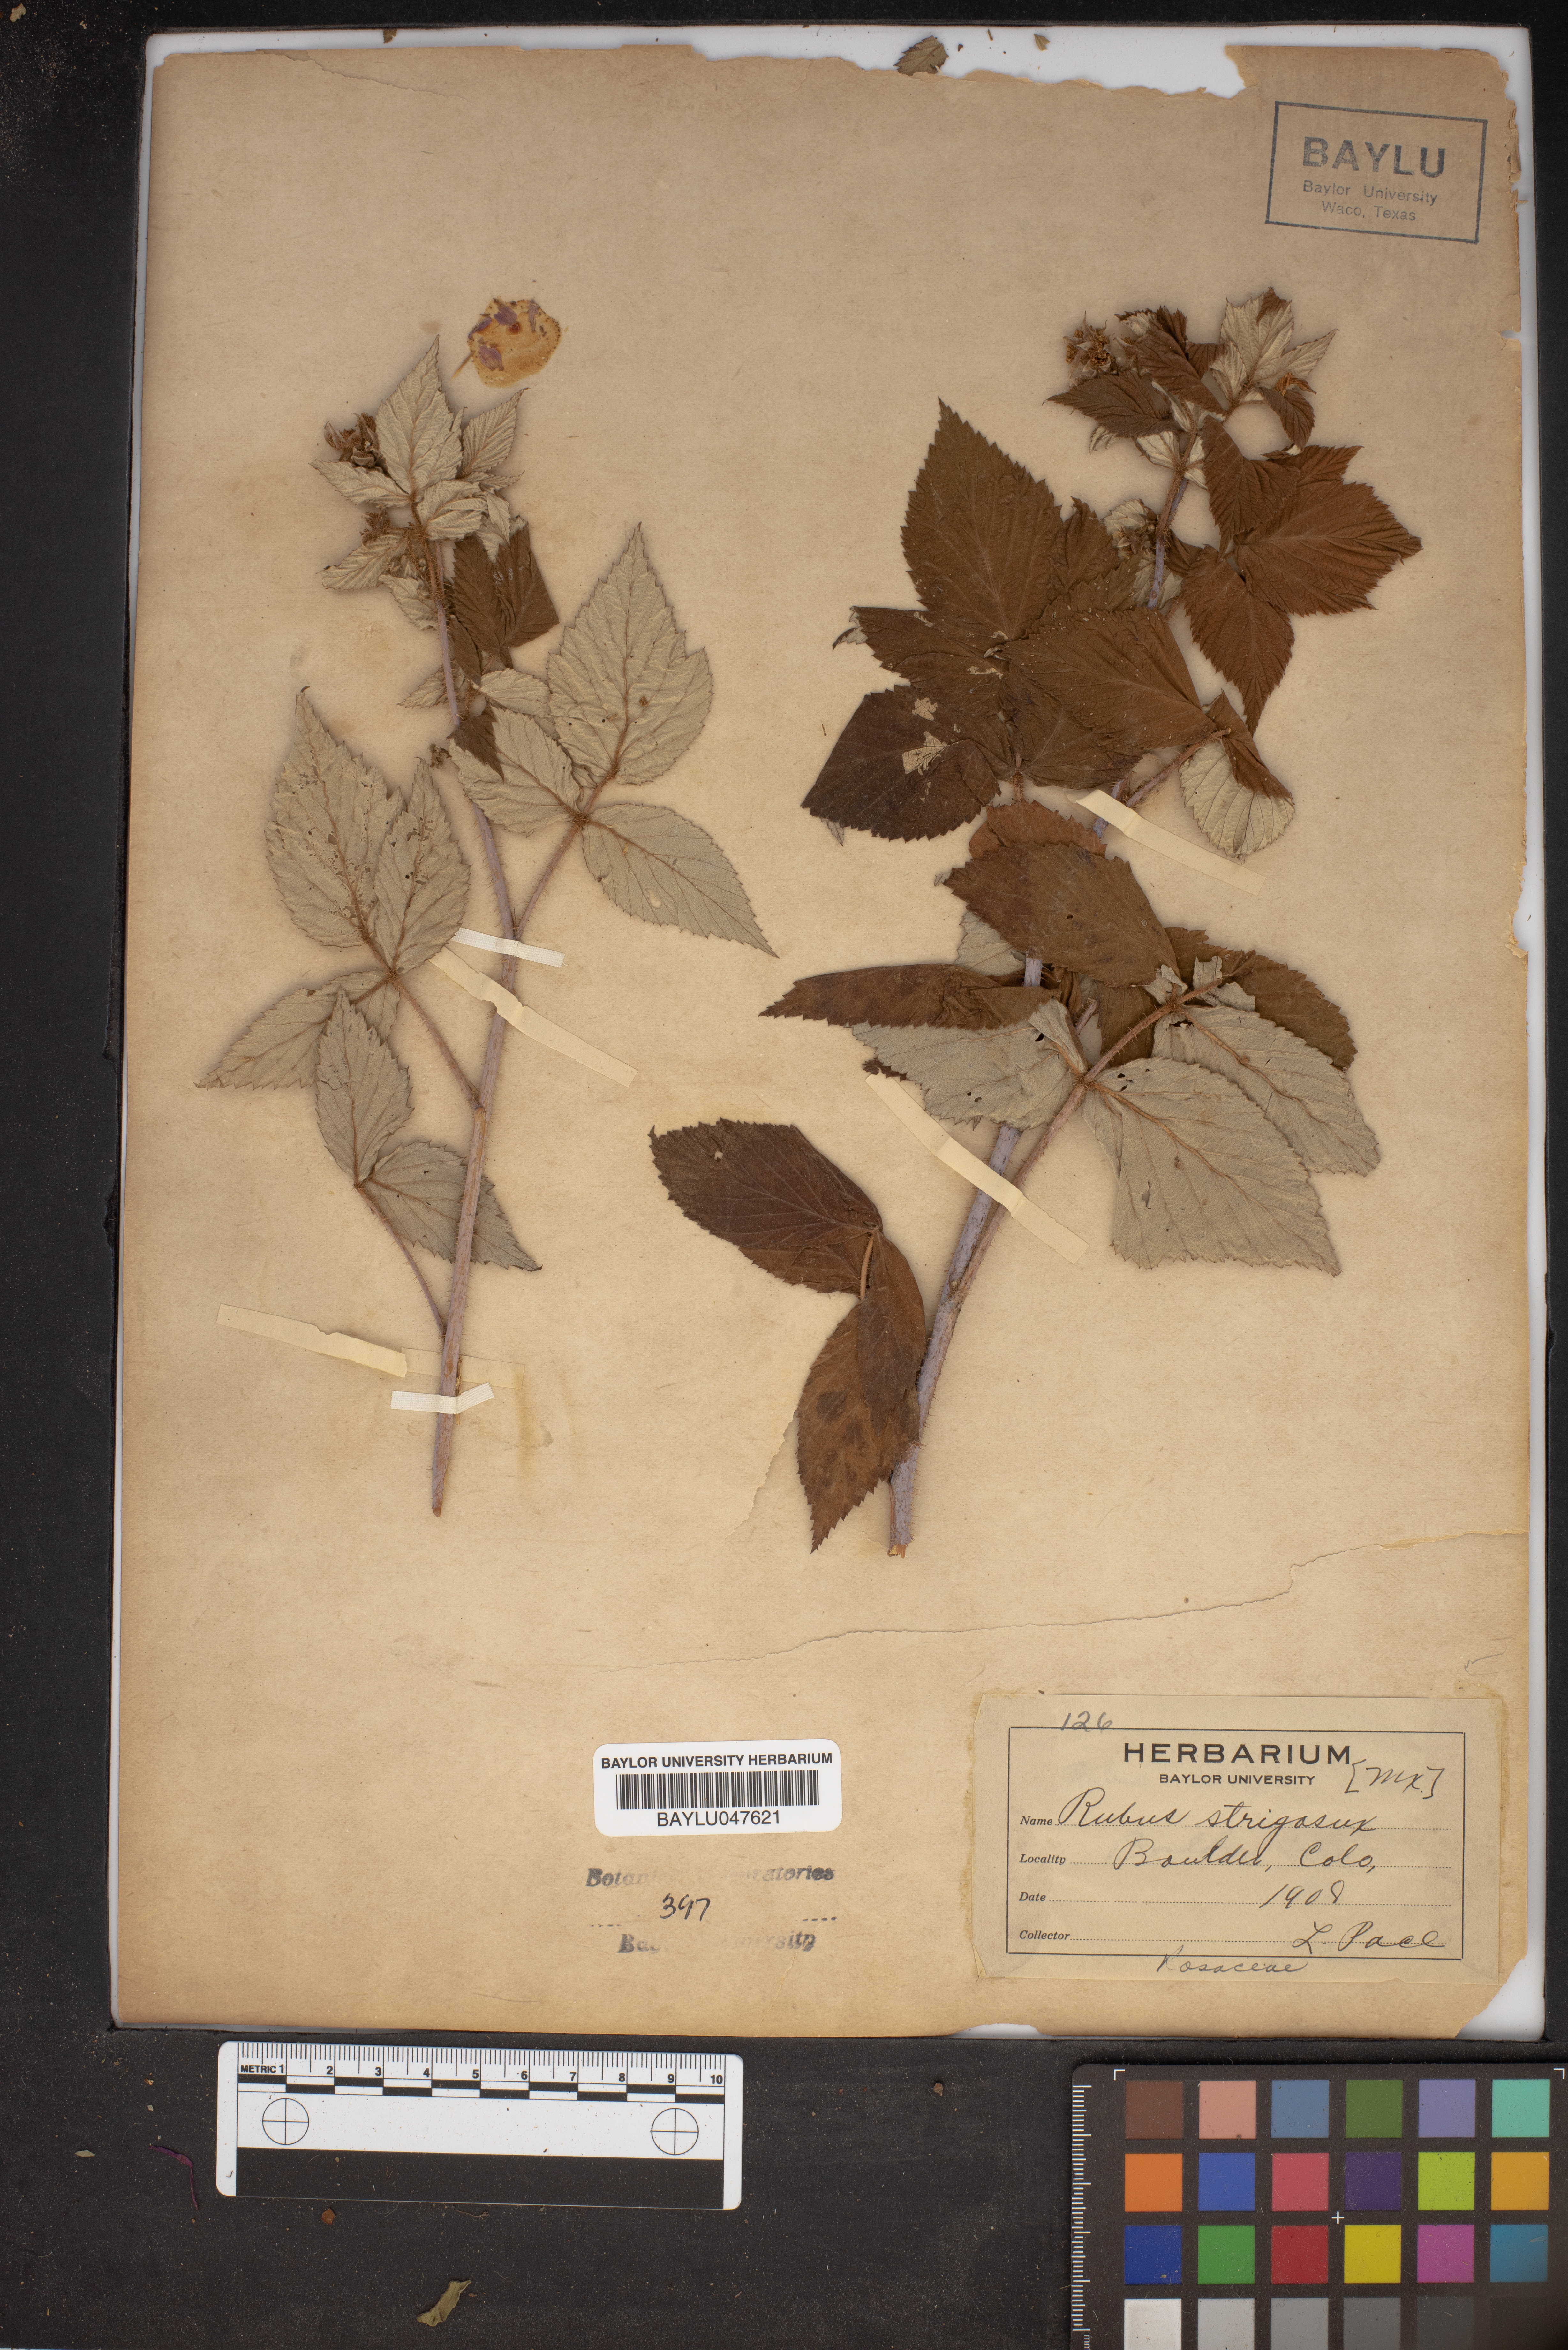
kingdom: Plantae
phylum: Tracheophyta
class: Magnoliopsida
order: Rosales
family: Rosaceae
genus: Rubus
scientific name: Rubus idaeus
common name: Raspberry
